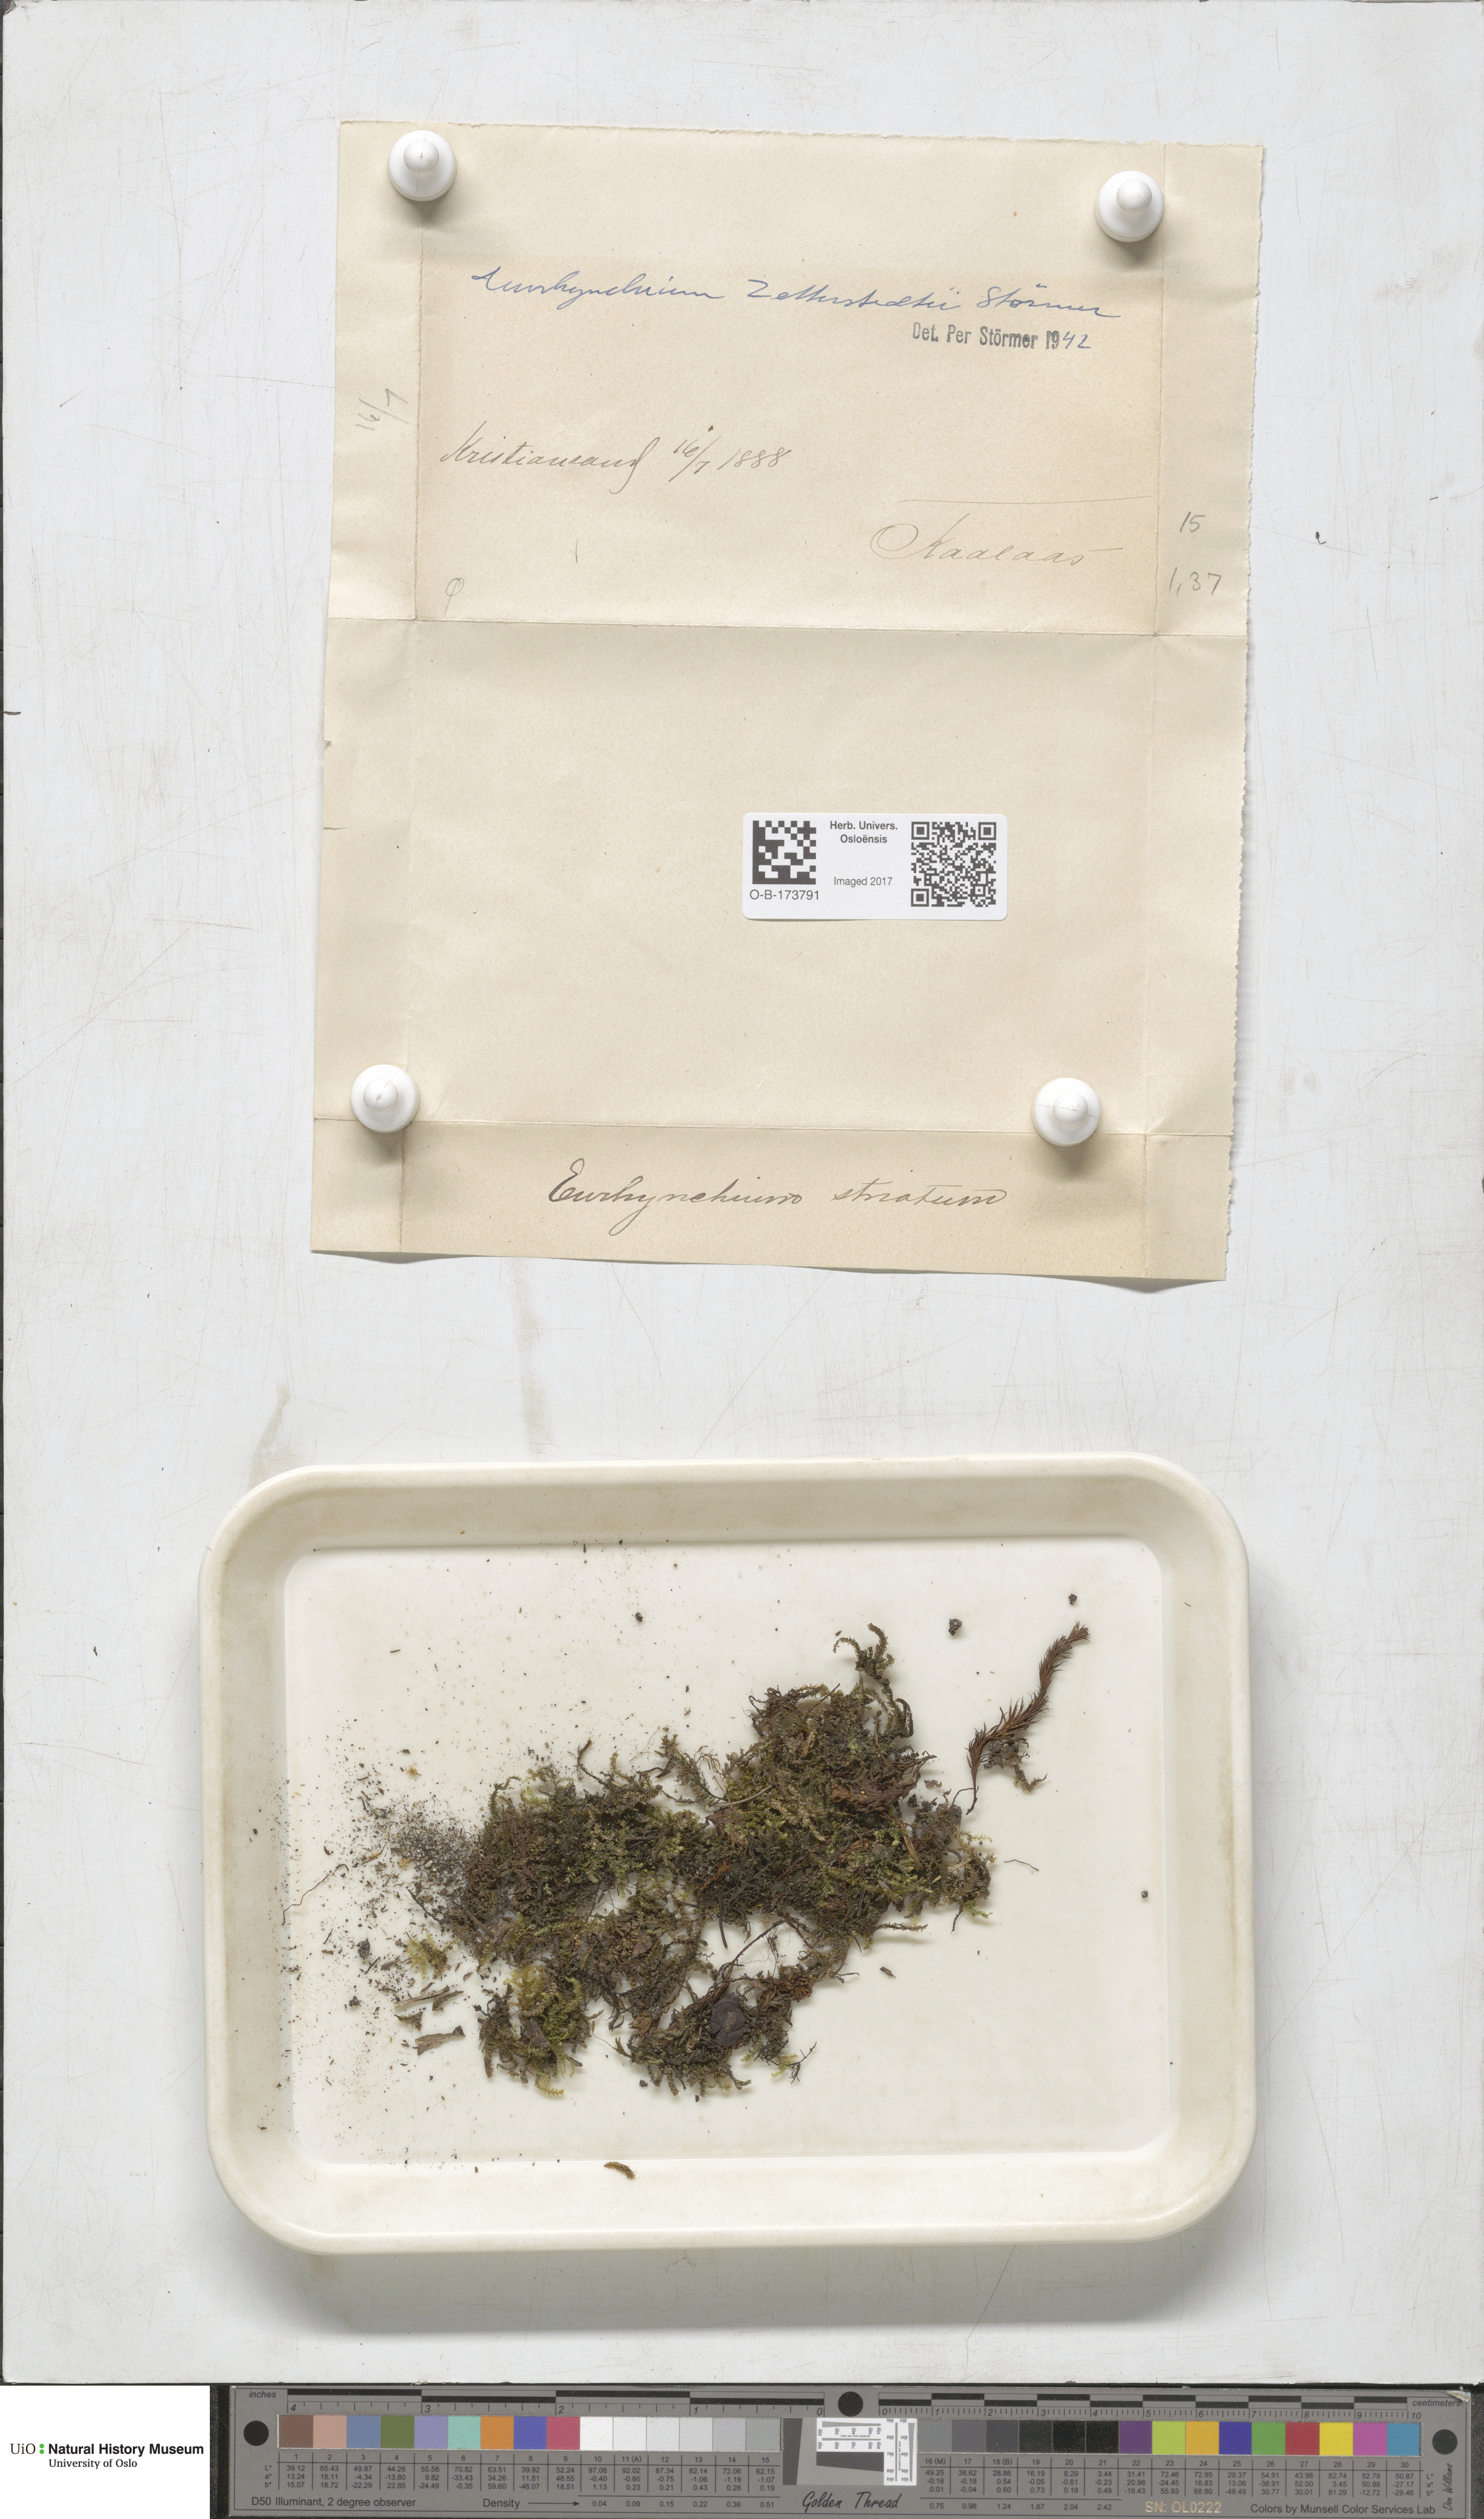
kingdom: Plantae
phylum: Bryophyta
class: Bryopsida
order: Hypnales
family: Brachytheciaceae
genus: Eurhynchium
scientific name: Eurhynchium angustirete
